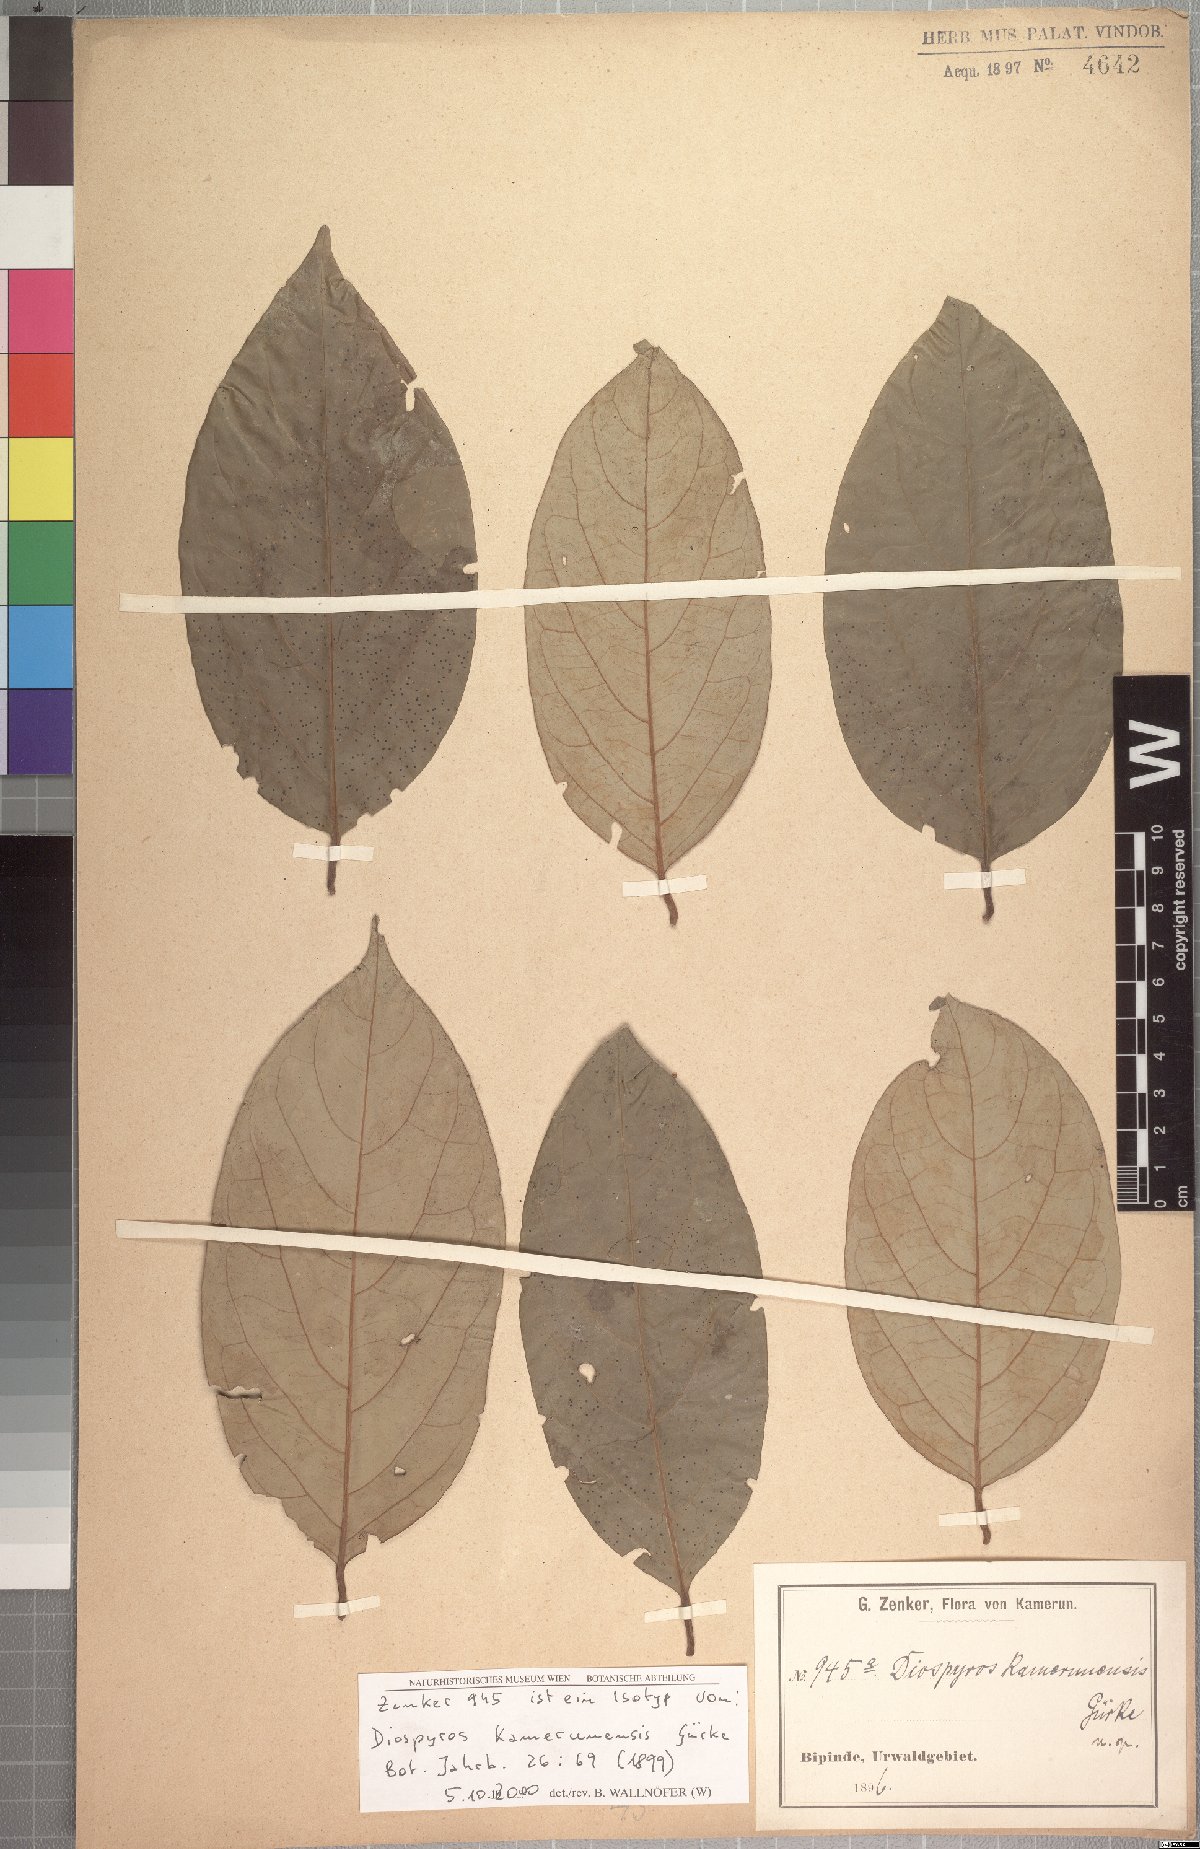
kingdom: Plantae
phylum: Tracheophyta
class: Magnoliopsida
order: Ericales
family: Ebenaceae
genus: Diospyros
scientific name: Diospyros kamerunensis
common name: African ebony
